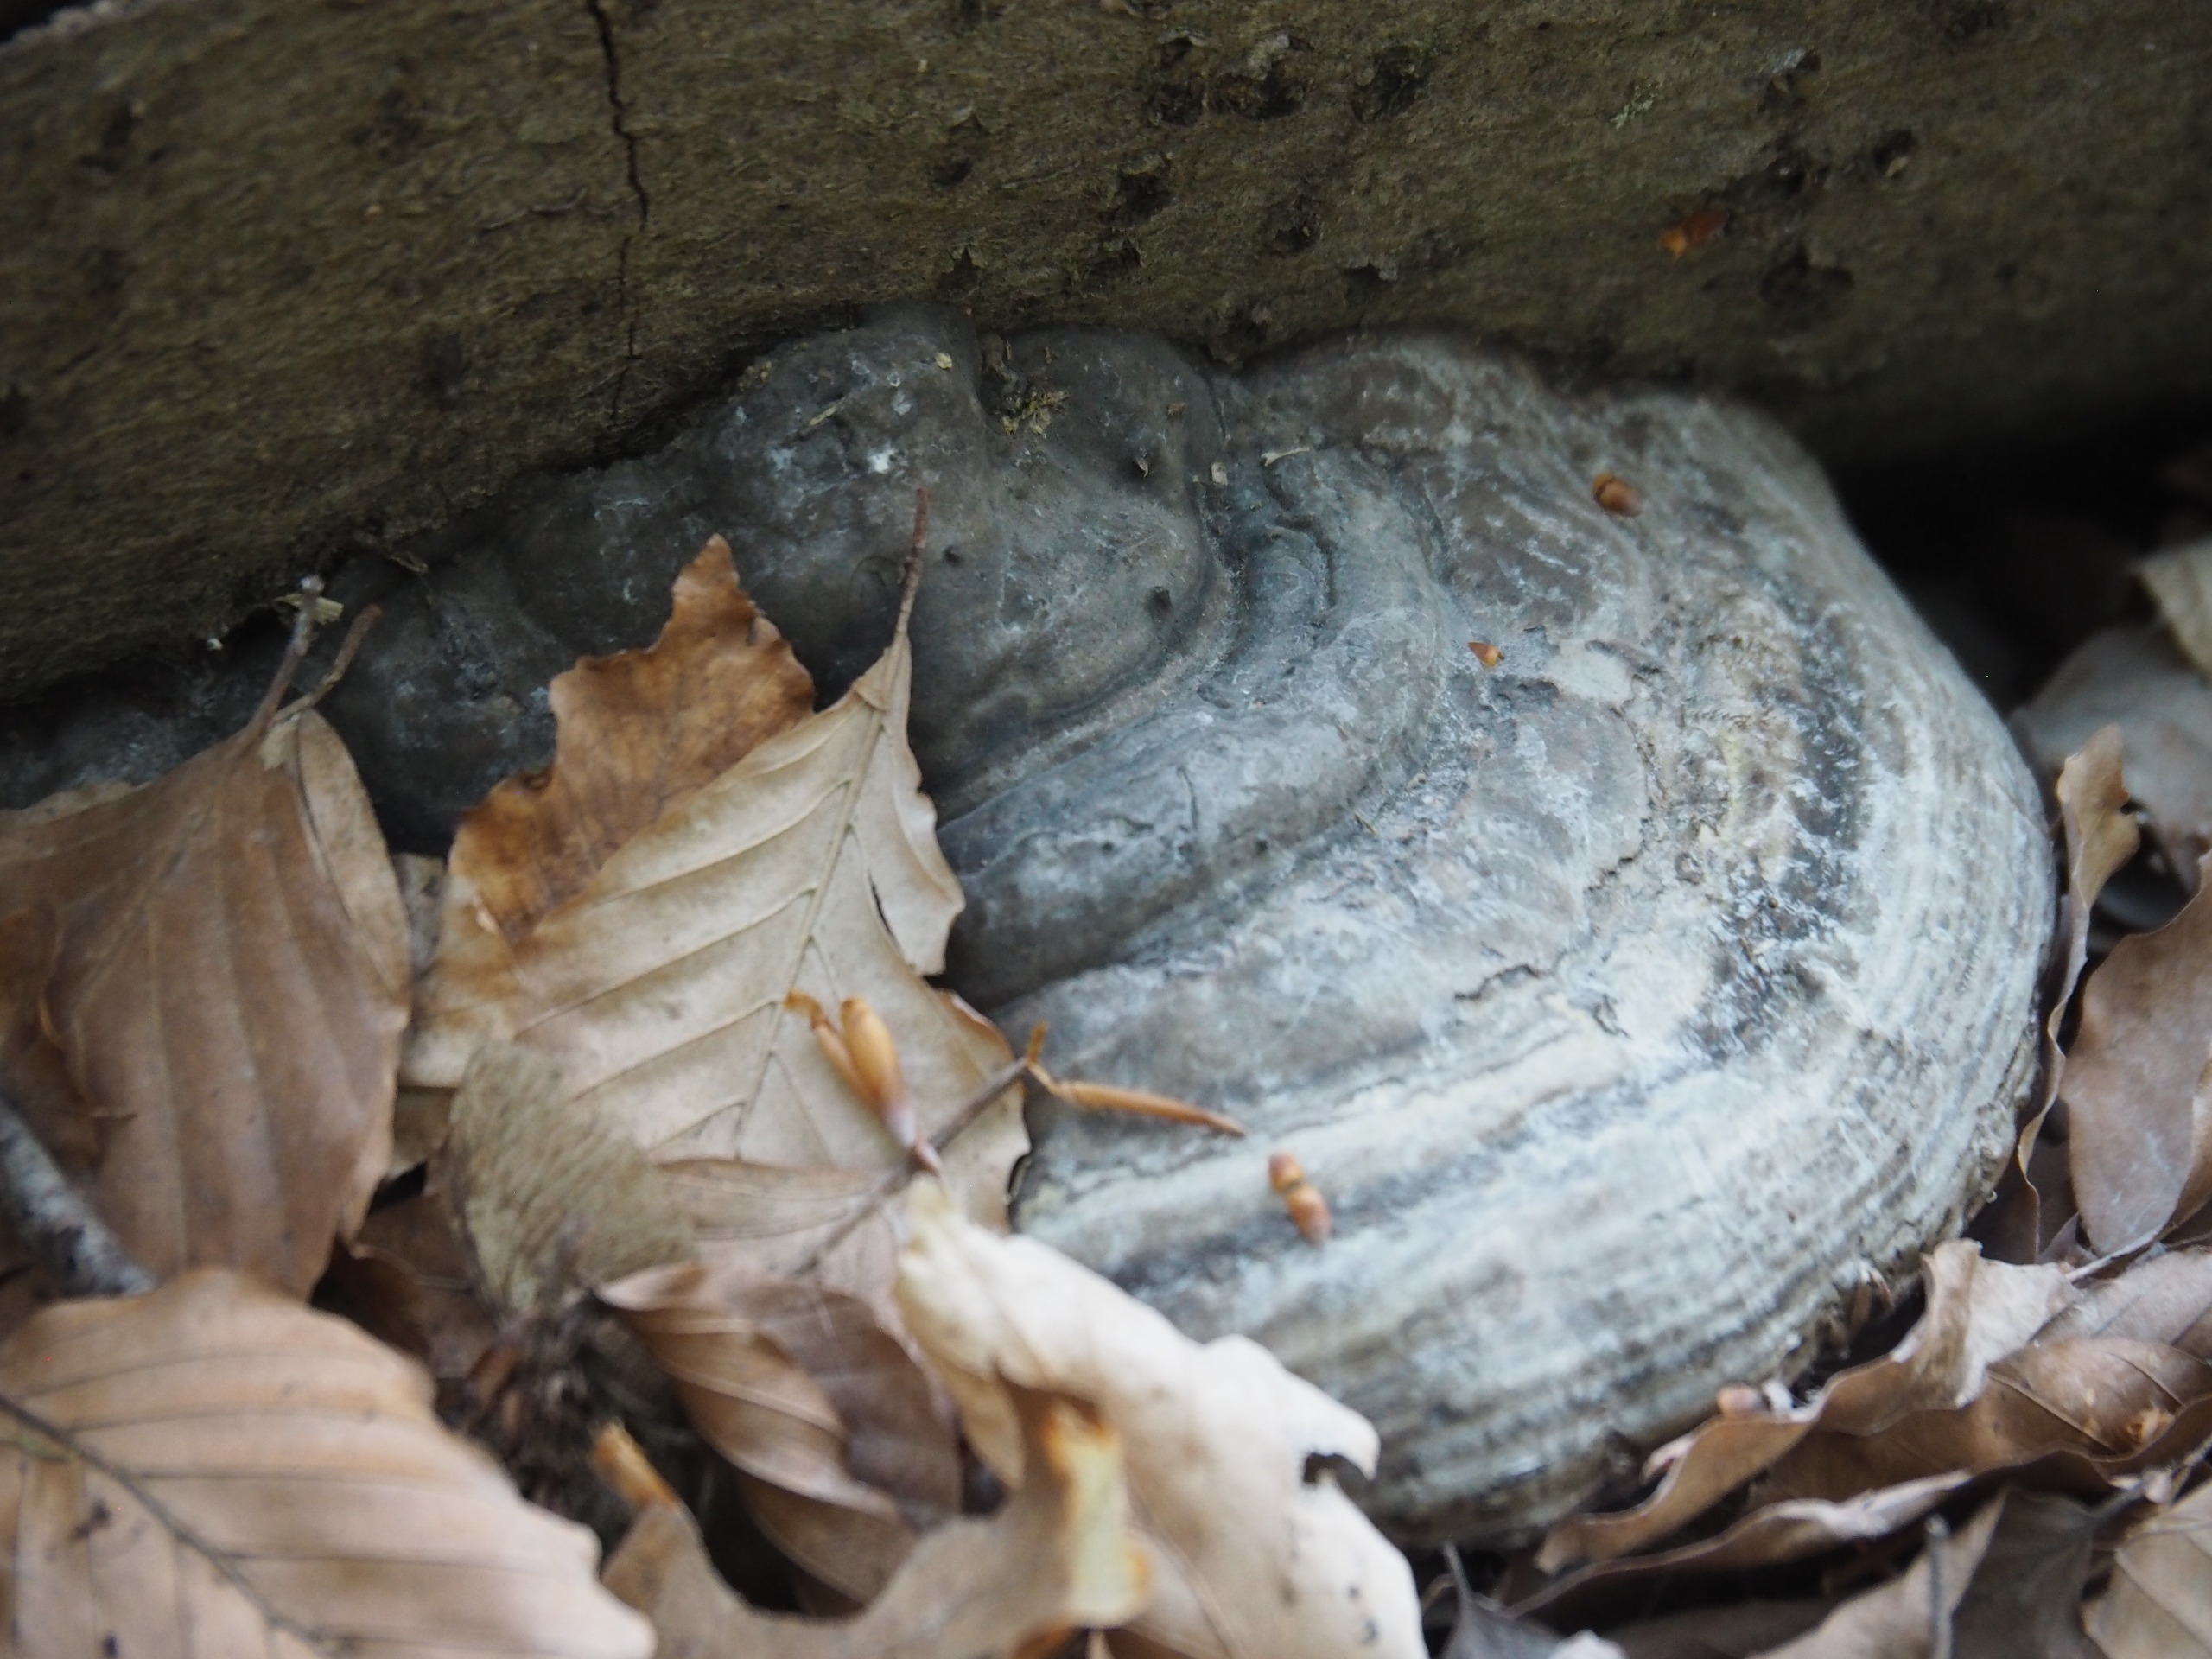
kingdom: Fungi
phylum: Basidiomycota
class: Agaricomycetes
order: Polyporales
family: Polyporaceae
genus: Fomes
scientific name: Fomes fomentarius
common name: Tøndersvamp
